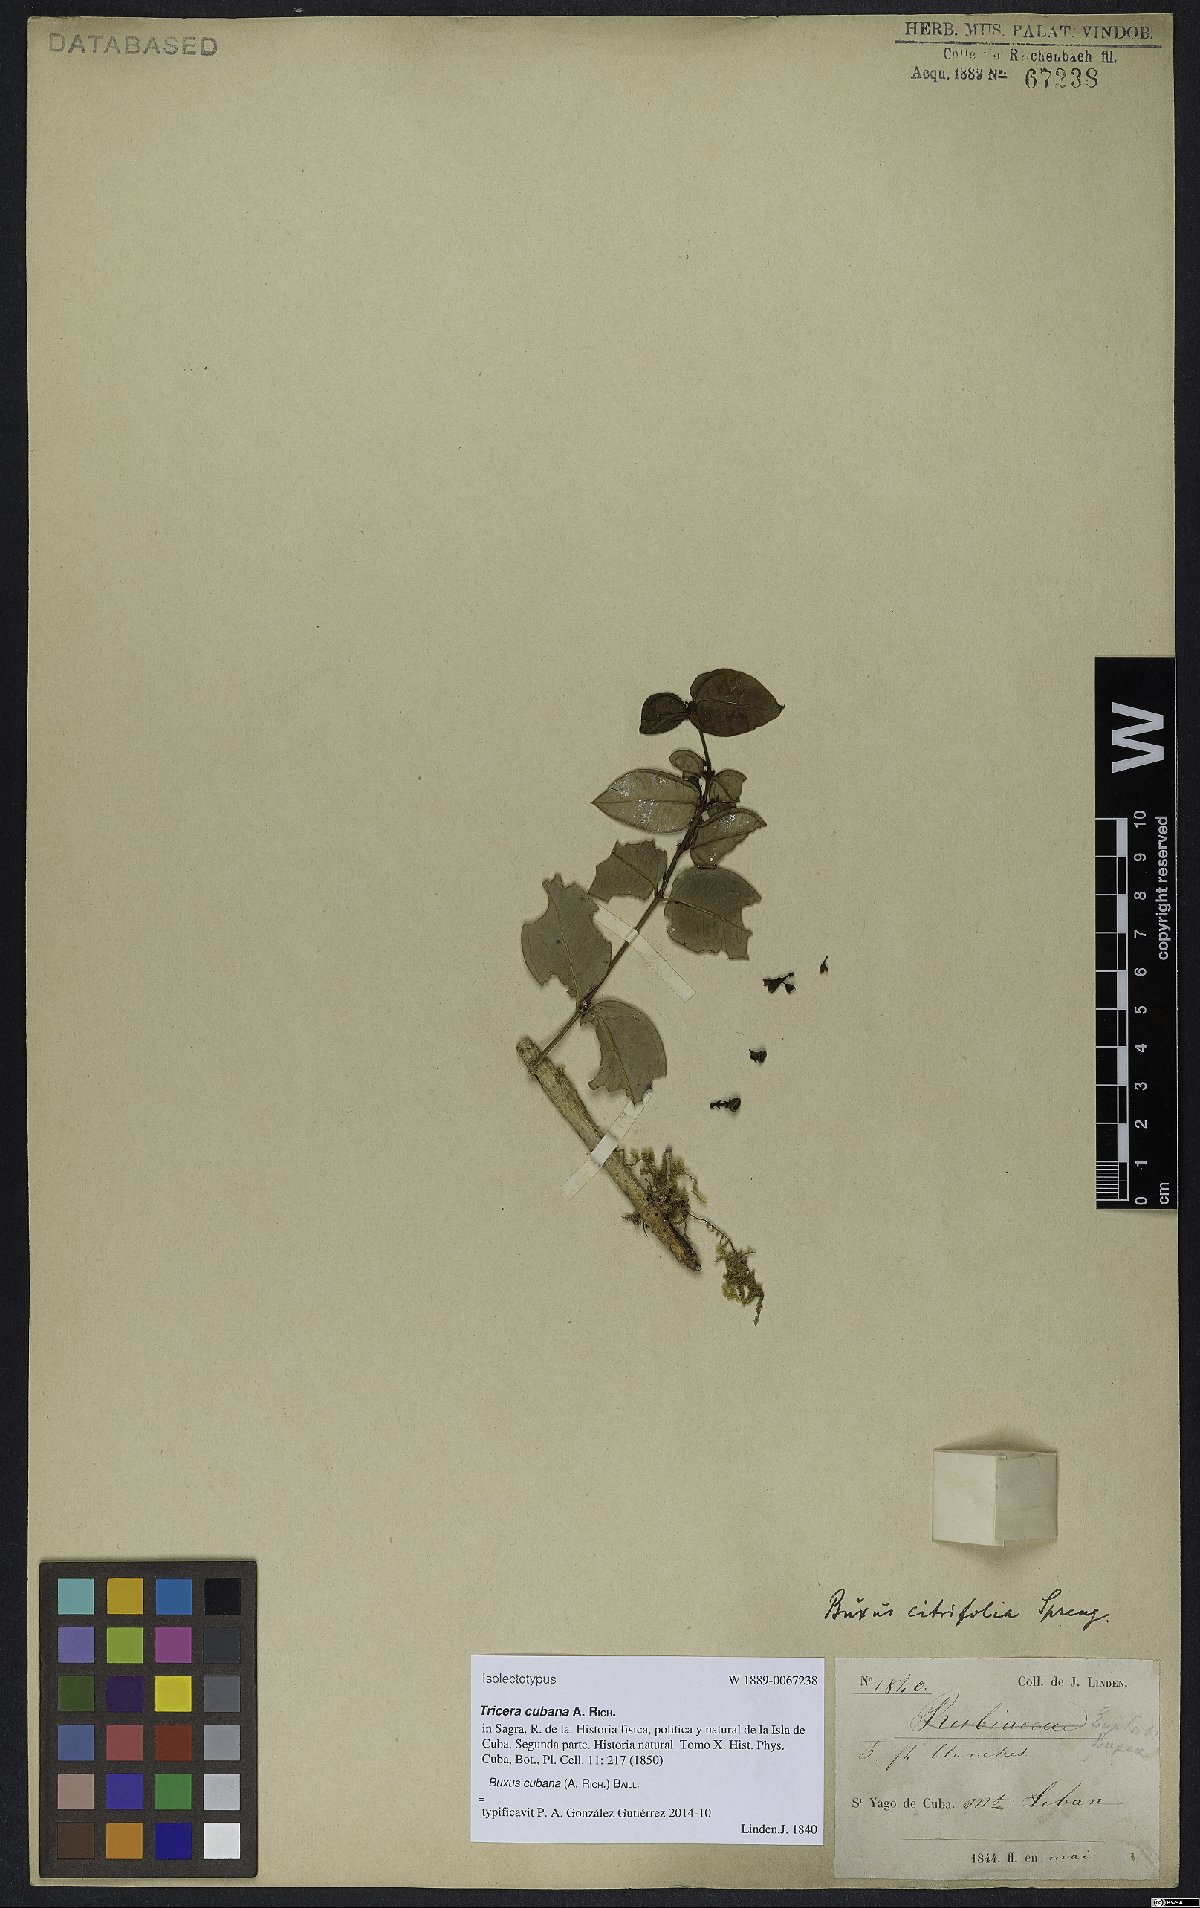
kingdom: Plantae
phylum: Tracheophyta
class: Magnoliopsida
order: Buxales
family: Buxaceae
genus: Buxus
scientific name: Buxus cubana
